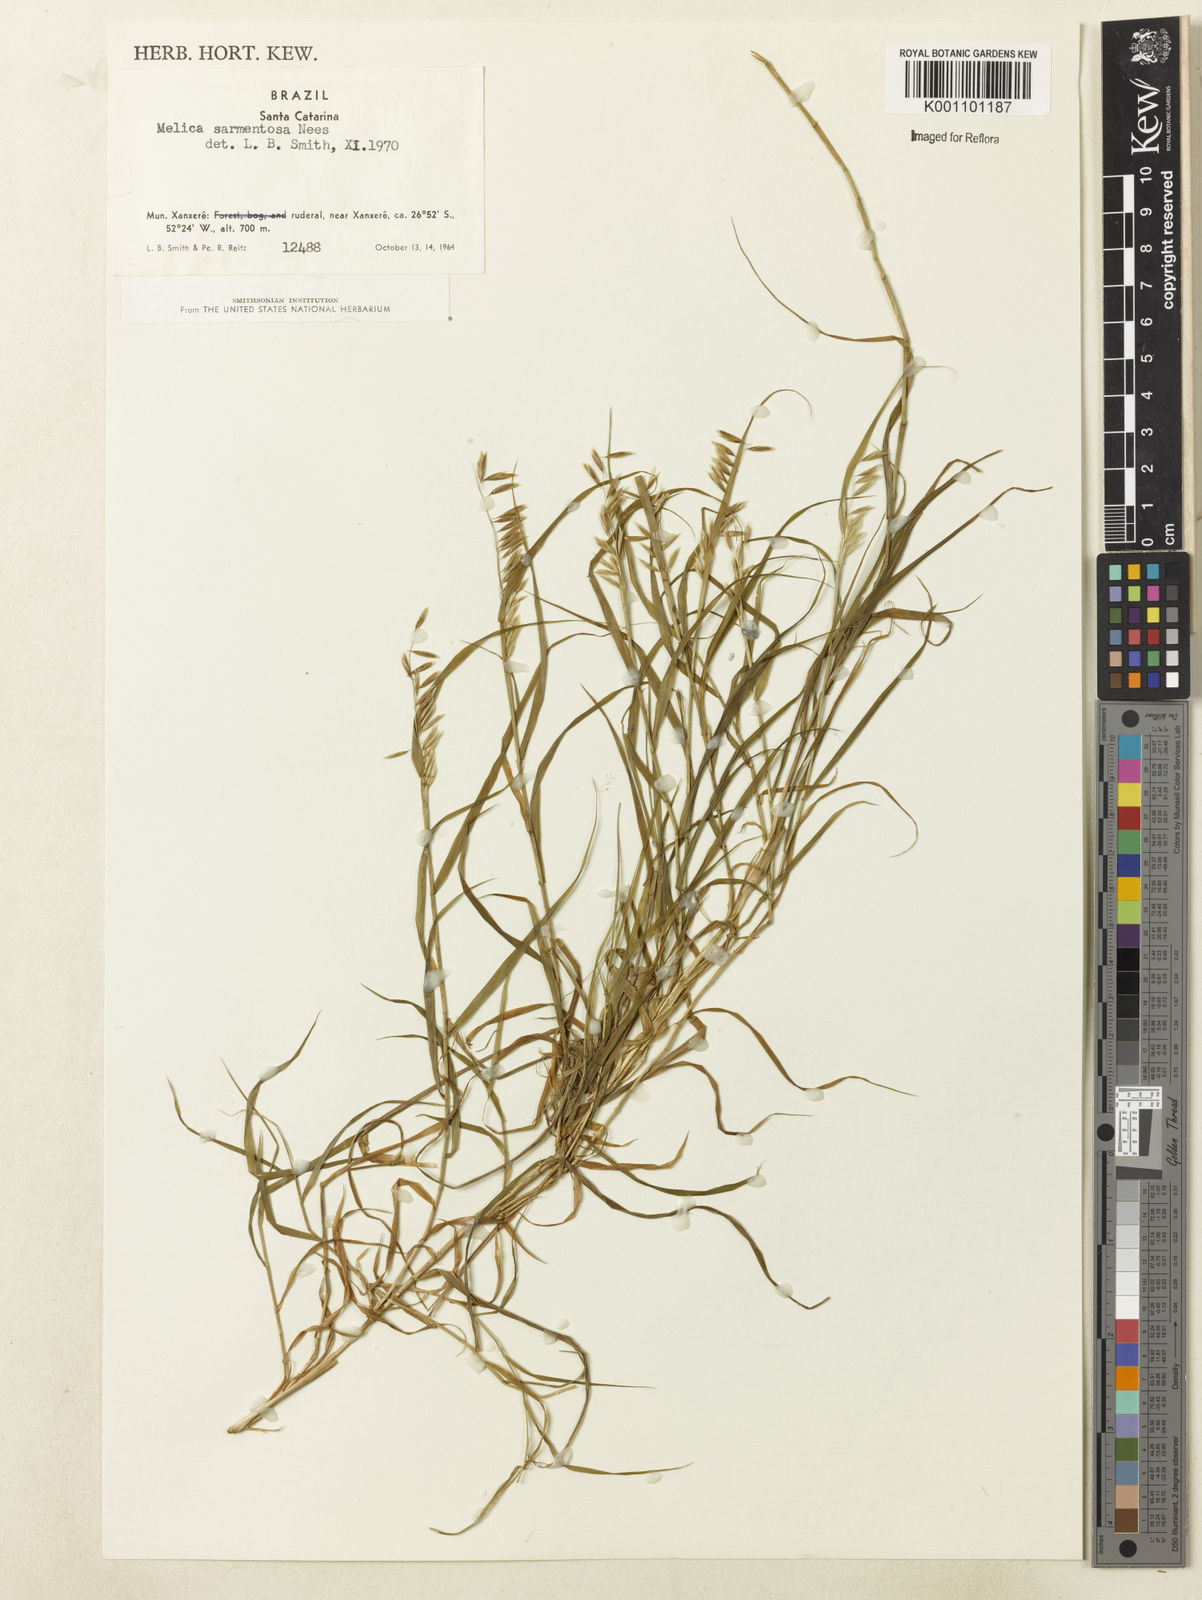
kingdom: Plantae
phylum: Tracheophyta
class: Liliopsida
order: Poales
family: Poaceae
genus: Melica
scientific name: Melica sarmentosa
